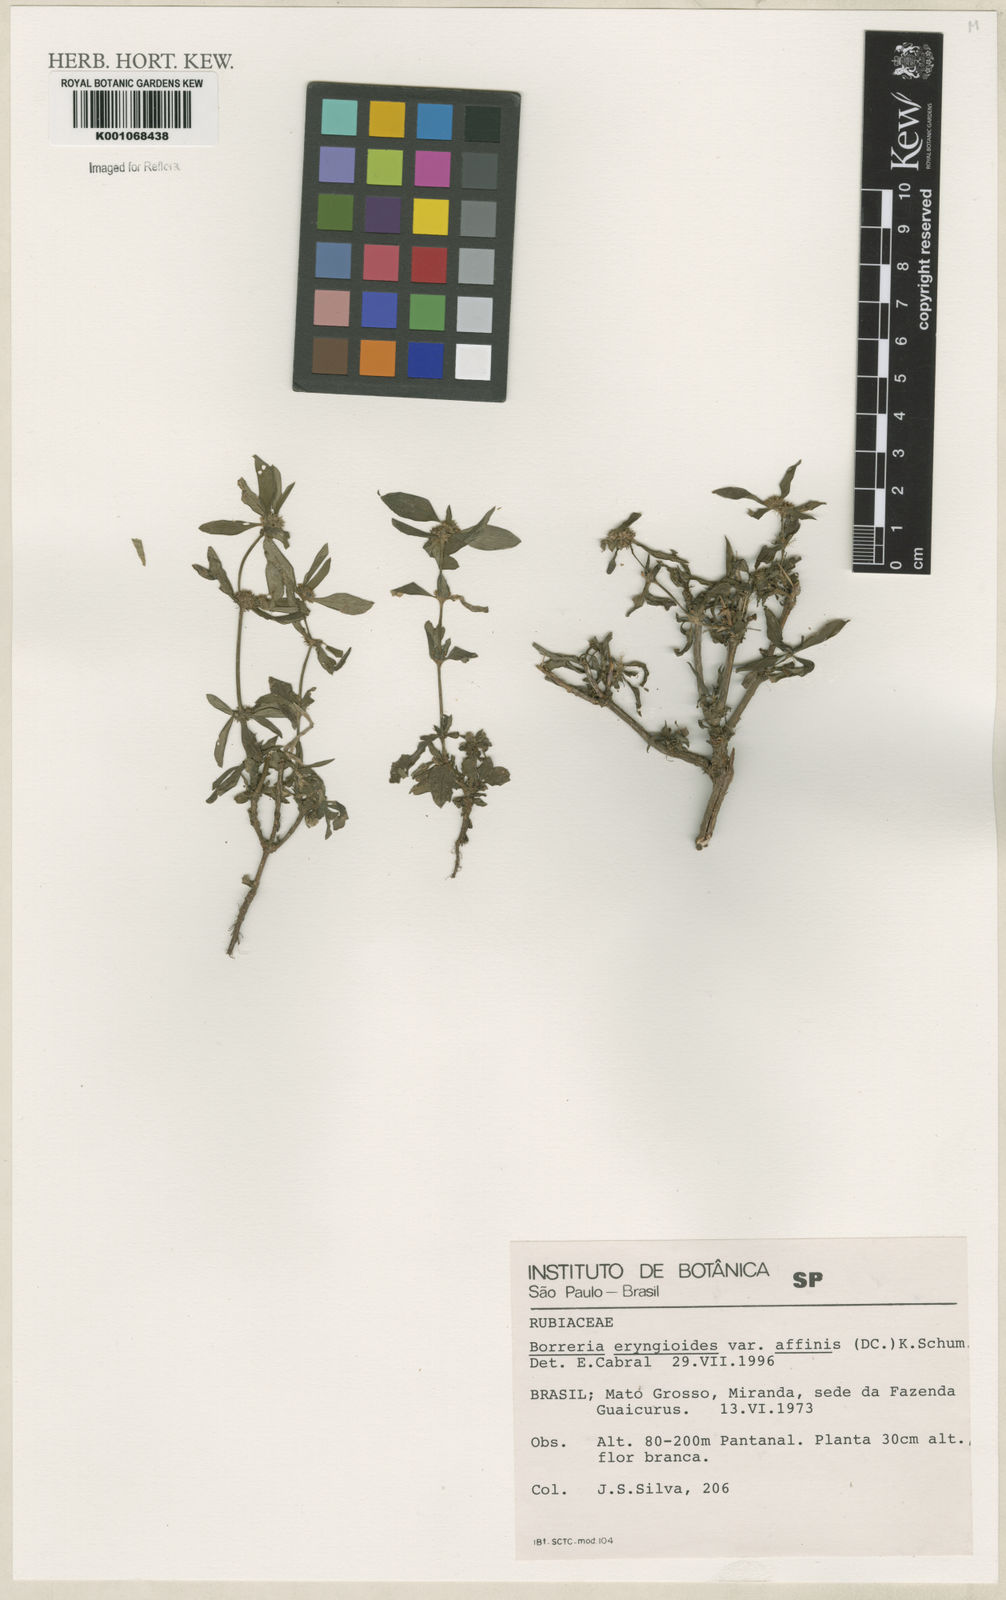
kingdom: Plantae
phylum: Tracheophyta
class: Magnoliopsida
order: Gentianales
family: Rubiaceae
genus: Spermacoce
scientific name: Spermacoce eryngioides
